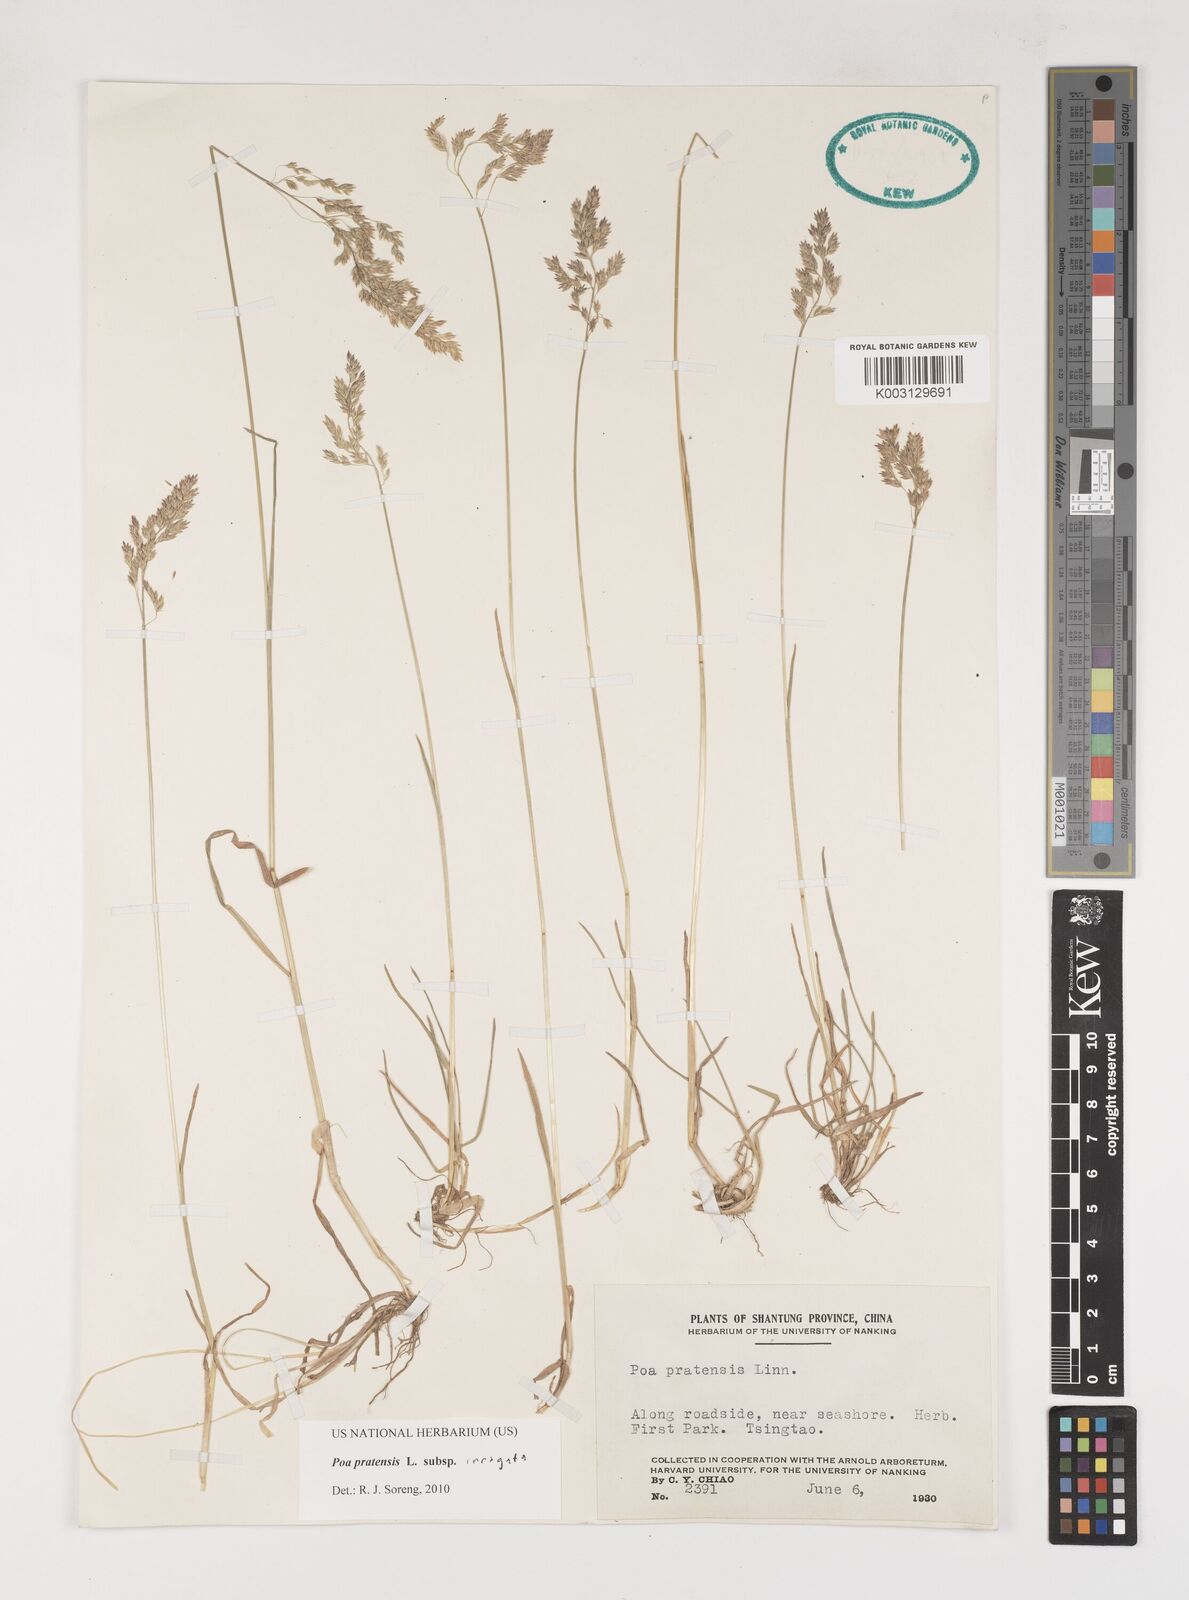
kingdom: Plantae
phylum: Tracheophyta
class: Liliopsida
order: Poales
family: Poaceae
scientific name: Poaceae
